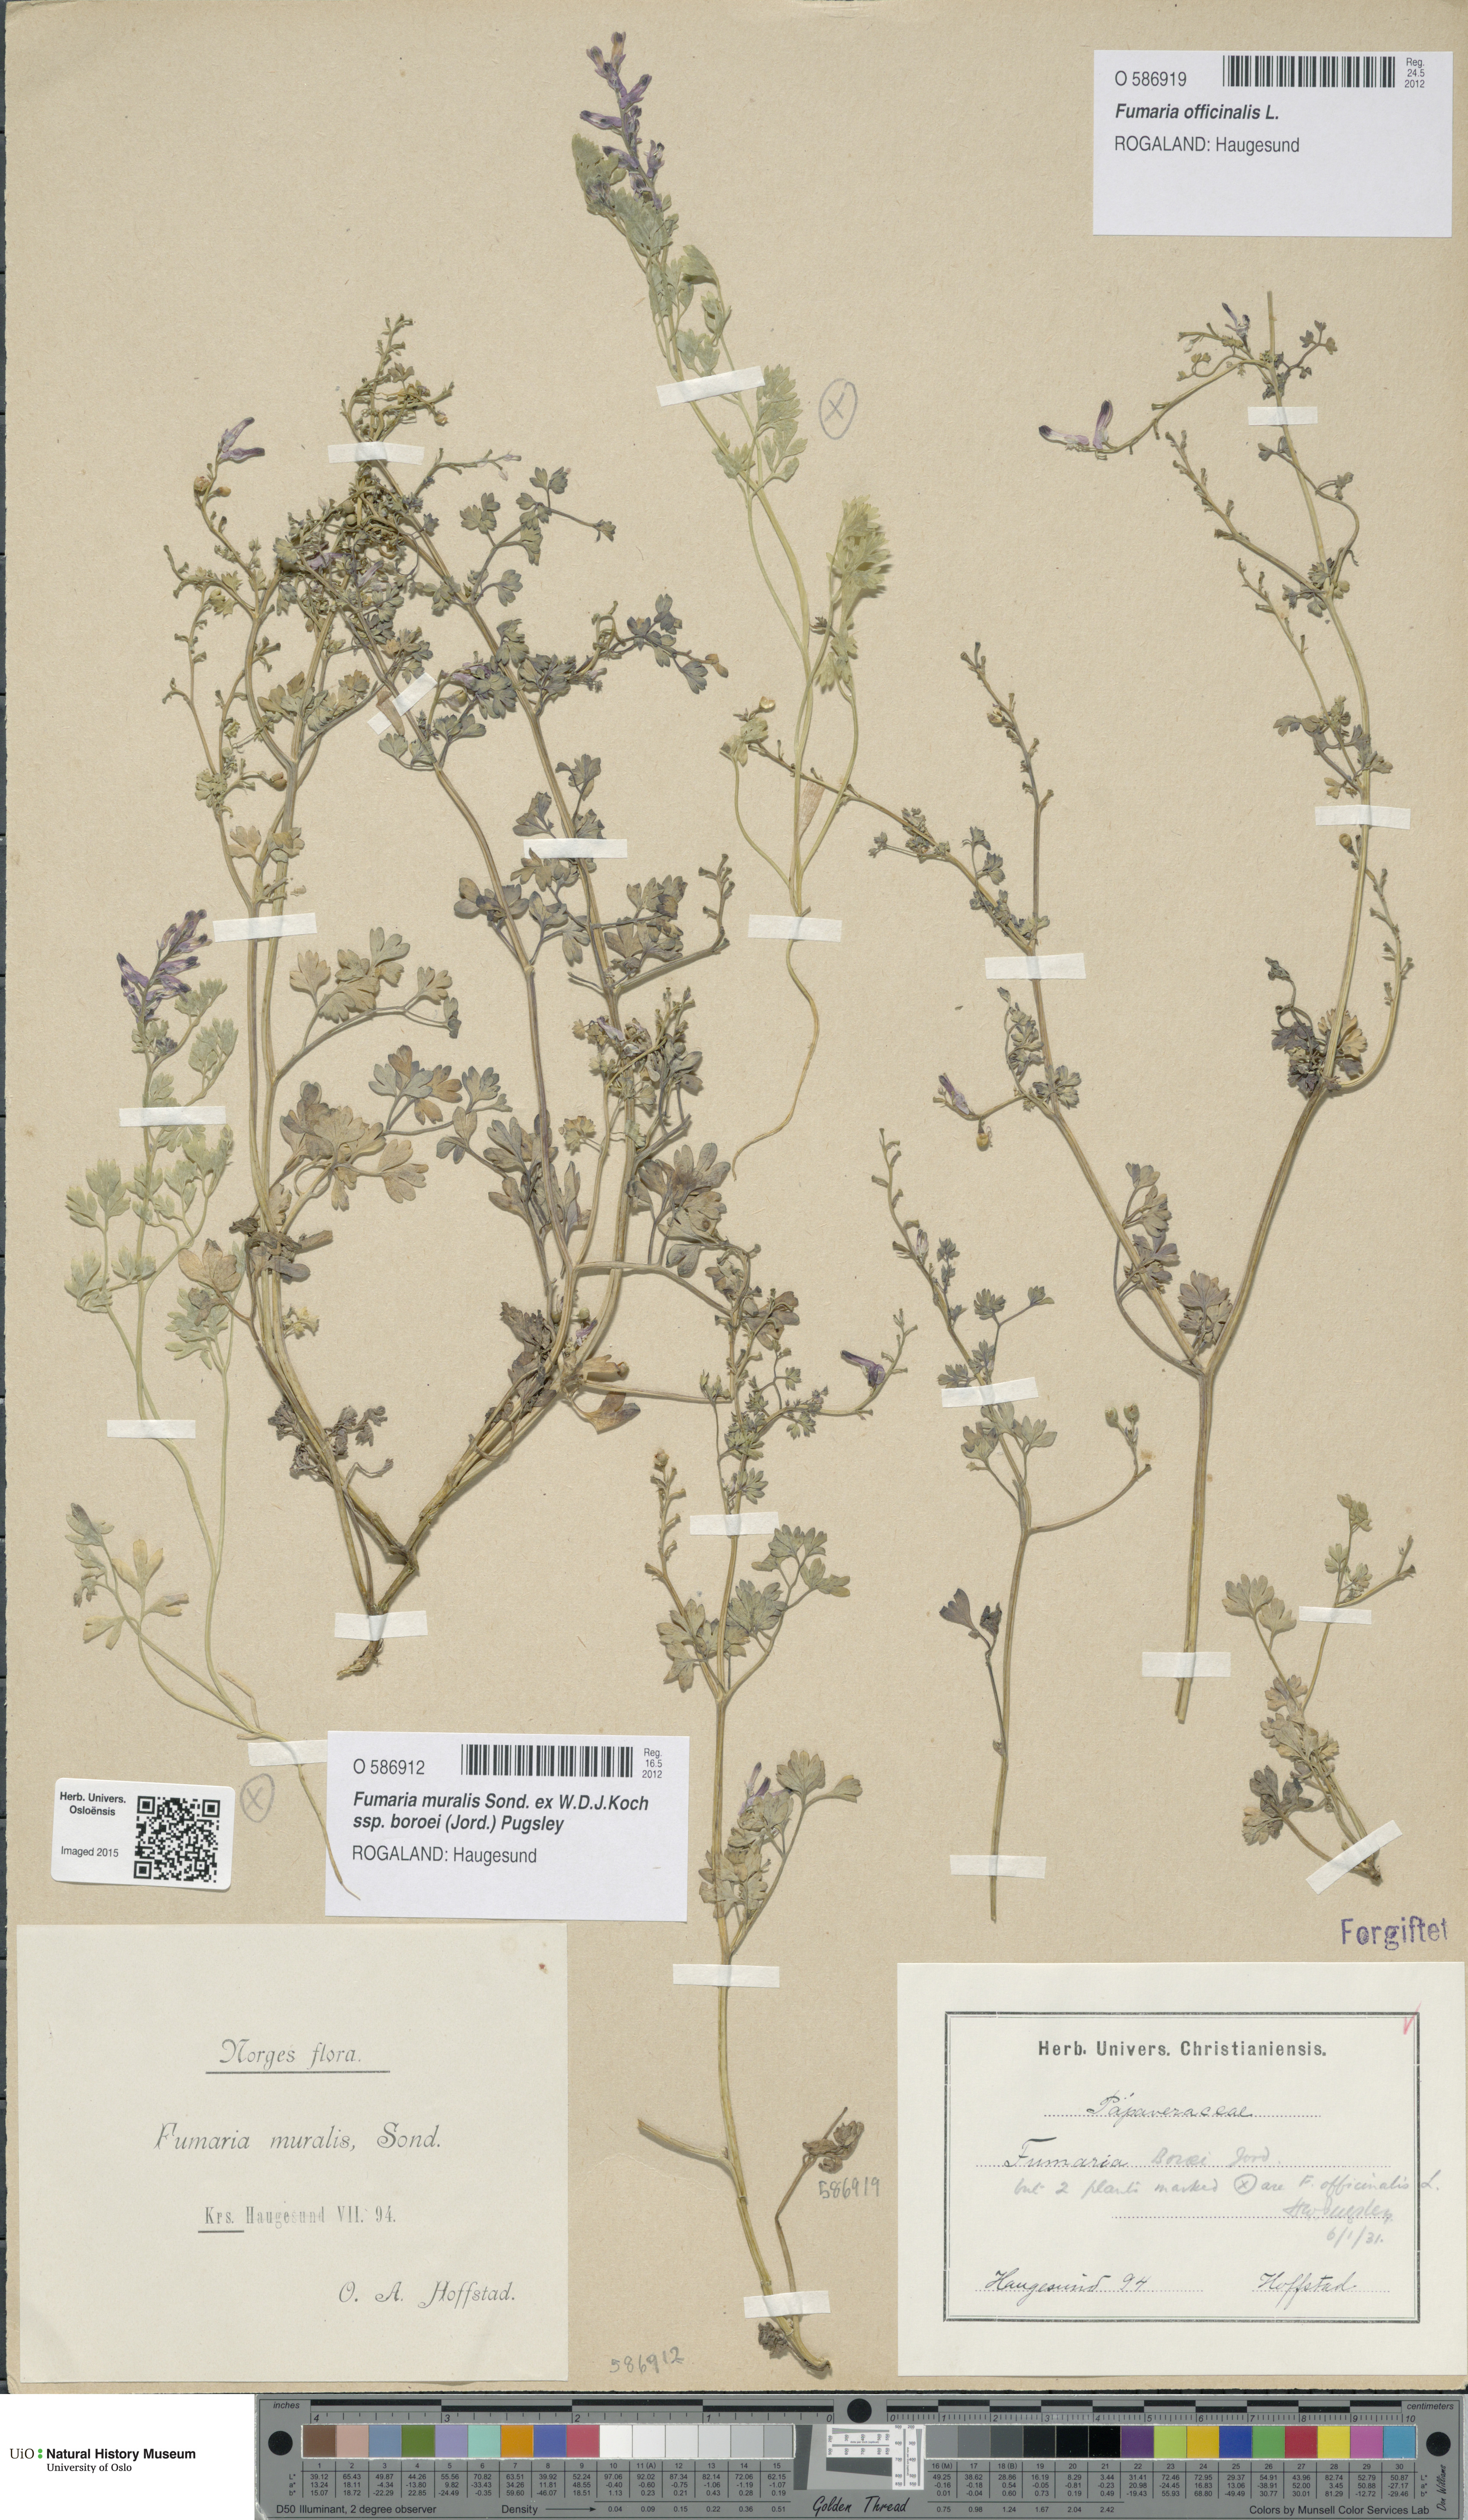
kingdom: Plantae
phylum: Tracheophyta
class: Magnoliopsida
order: Ranunculales
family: Papaveraceae
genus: Fumaria
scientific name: Fumaria officinalis
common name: Common fumitory
